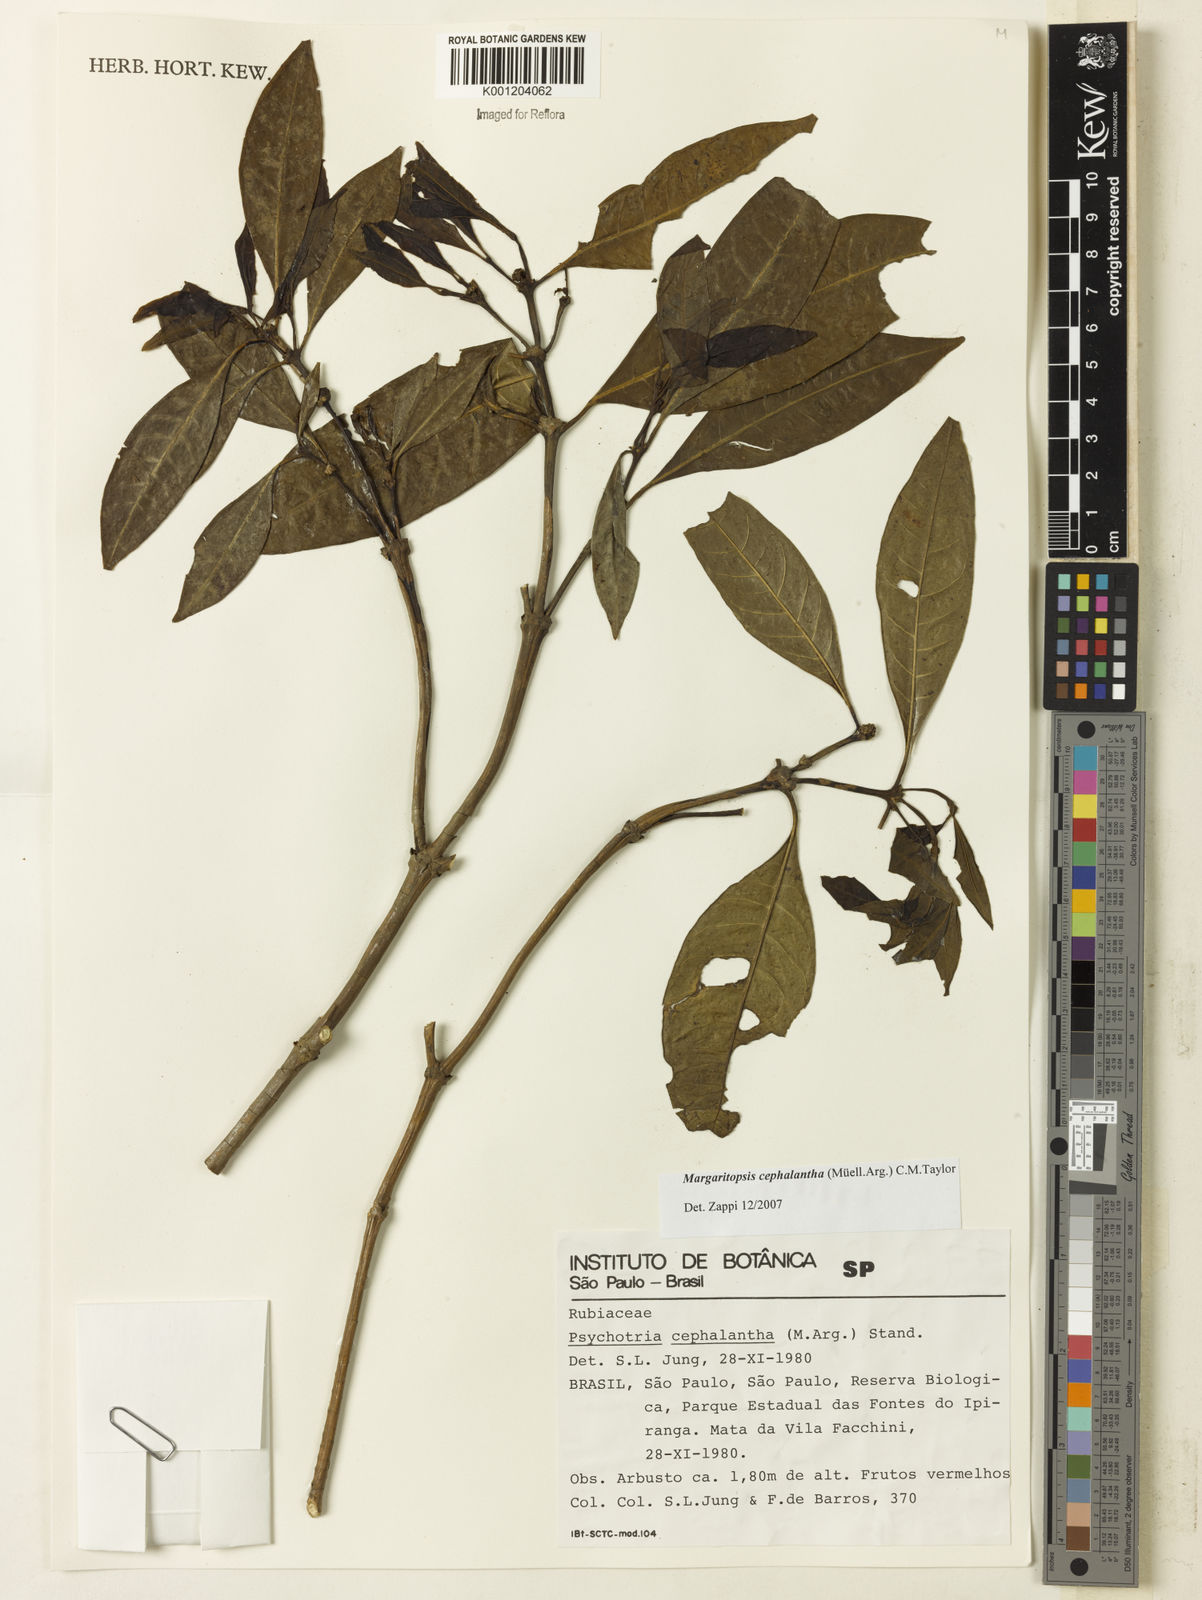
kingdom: Plantae
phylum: Tracheophyta
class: Magnoliopsida
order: Gentianales
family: Rubiaceae
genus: Eumachia
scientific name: Eumachia
